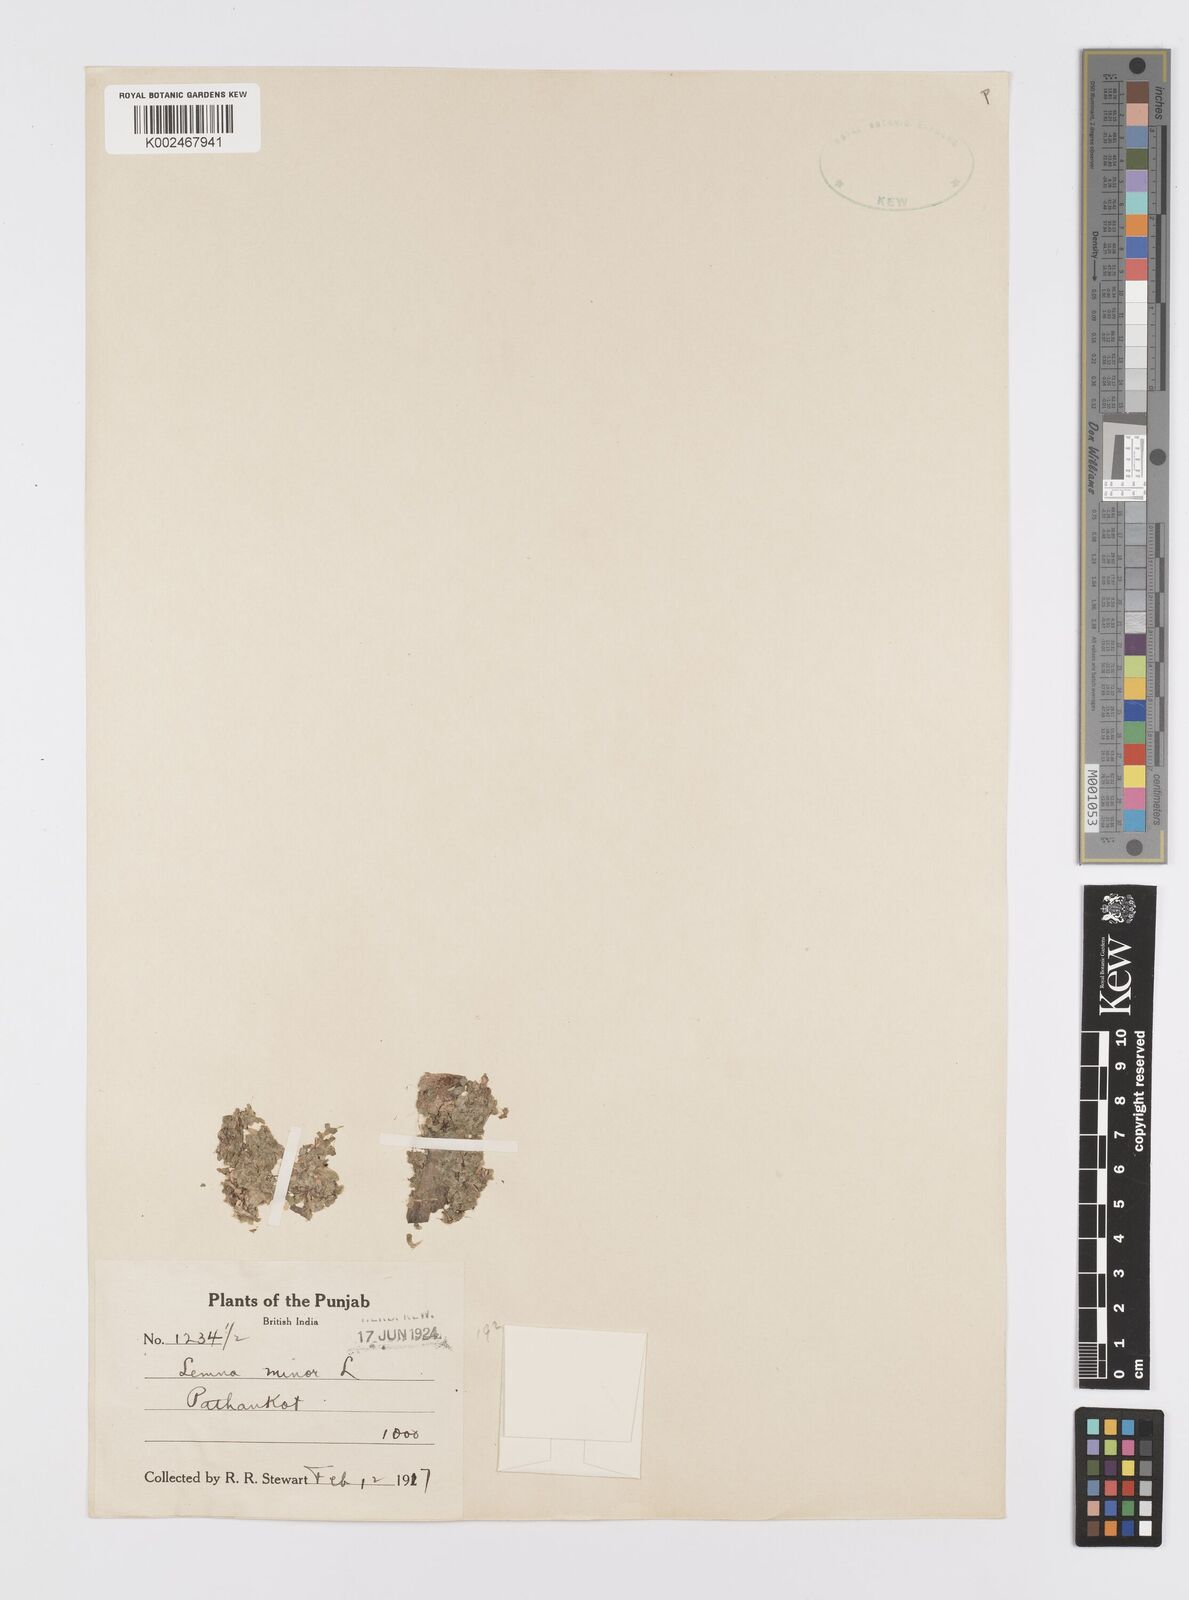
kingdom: Plantae
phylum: Tracheophyta
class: Liliopsida
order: Alismatales
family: Araceae
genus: Lemna
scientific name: Lemna minor
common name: Common duckweed
